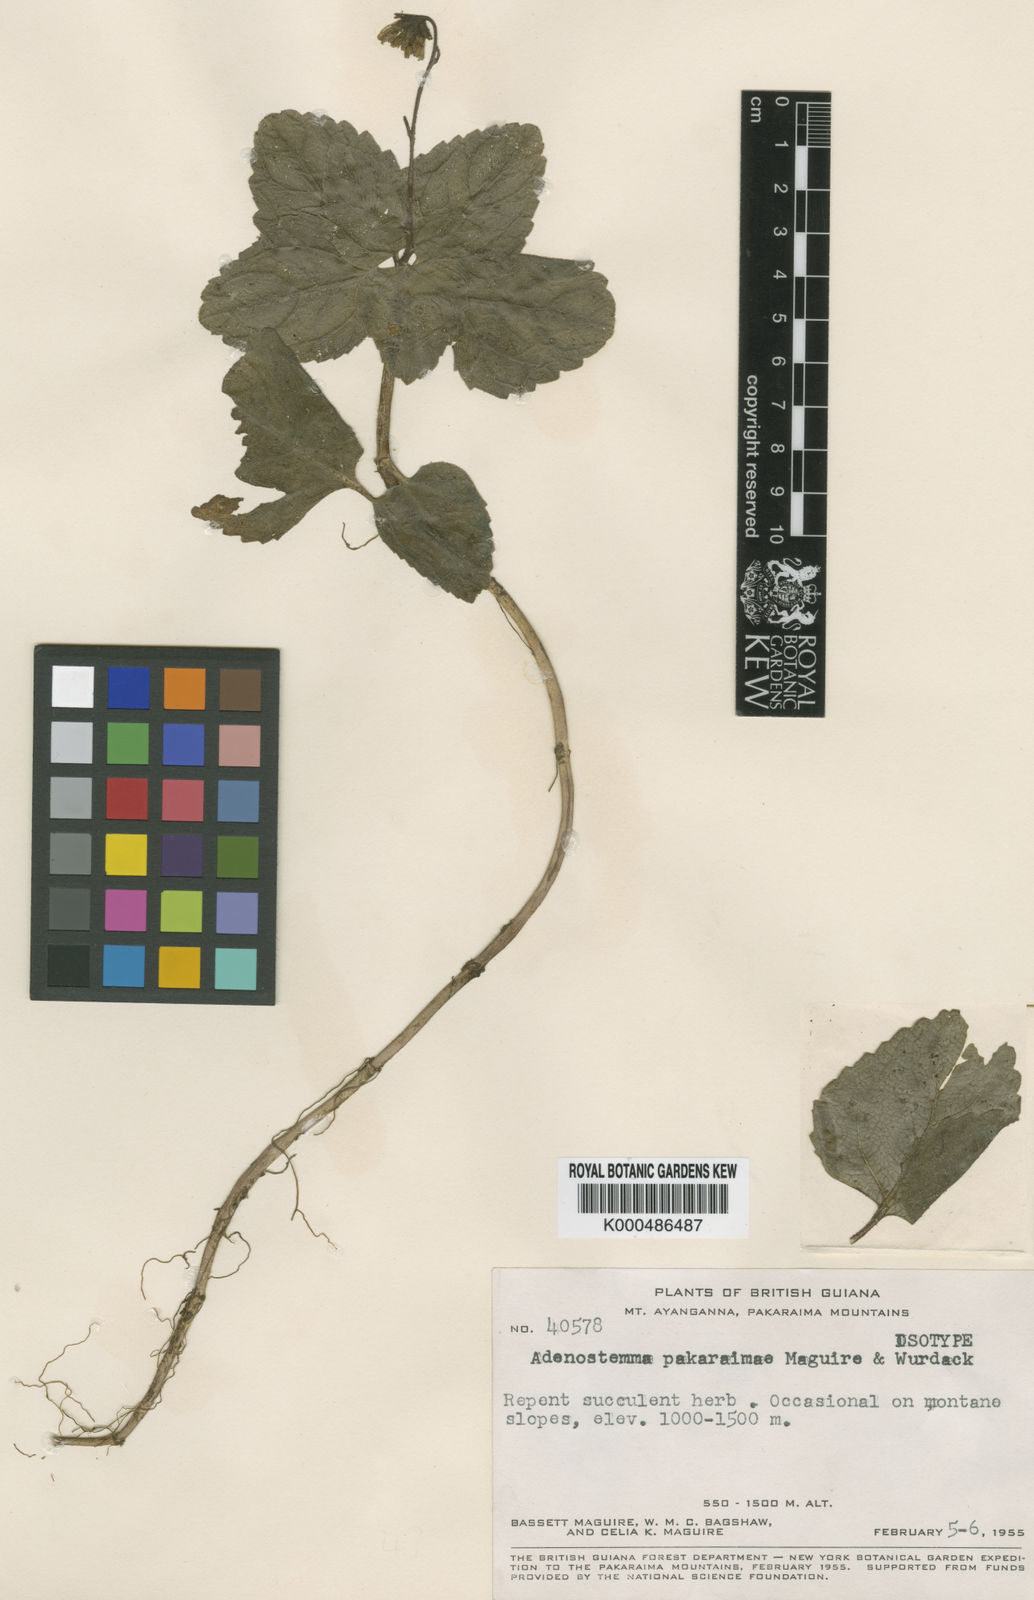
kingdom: Plantae
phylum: Tracheophyta
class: Magnoliopsida
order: Asterales
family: Asteraceae
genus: Sciadocephala
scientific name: Sciadocephala pakaraimae
